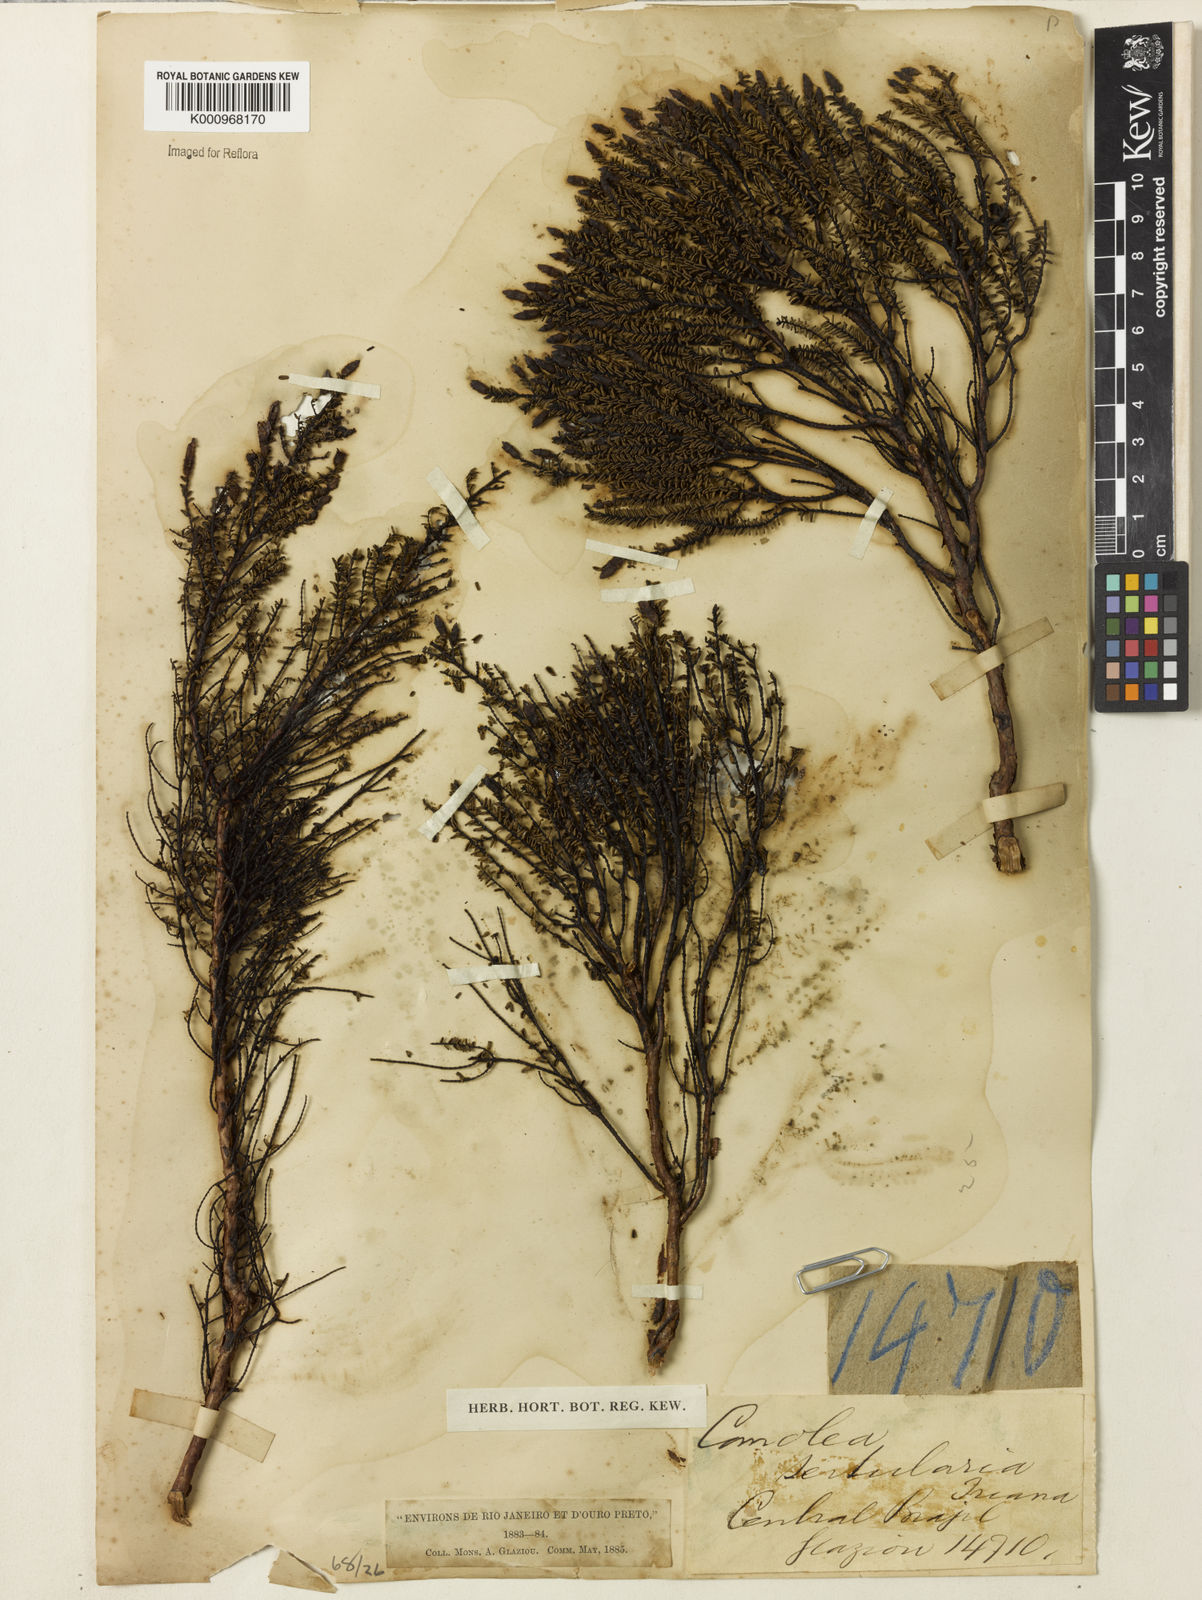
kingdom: Plantae
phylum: Tracheophyta
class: Magnoliopsida
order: Myrtales
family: Melastomataceae
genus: Fritzschia
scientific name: Fritzschia sertularia
